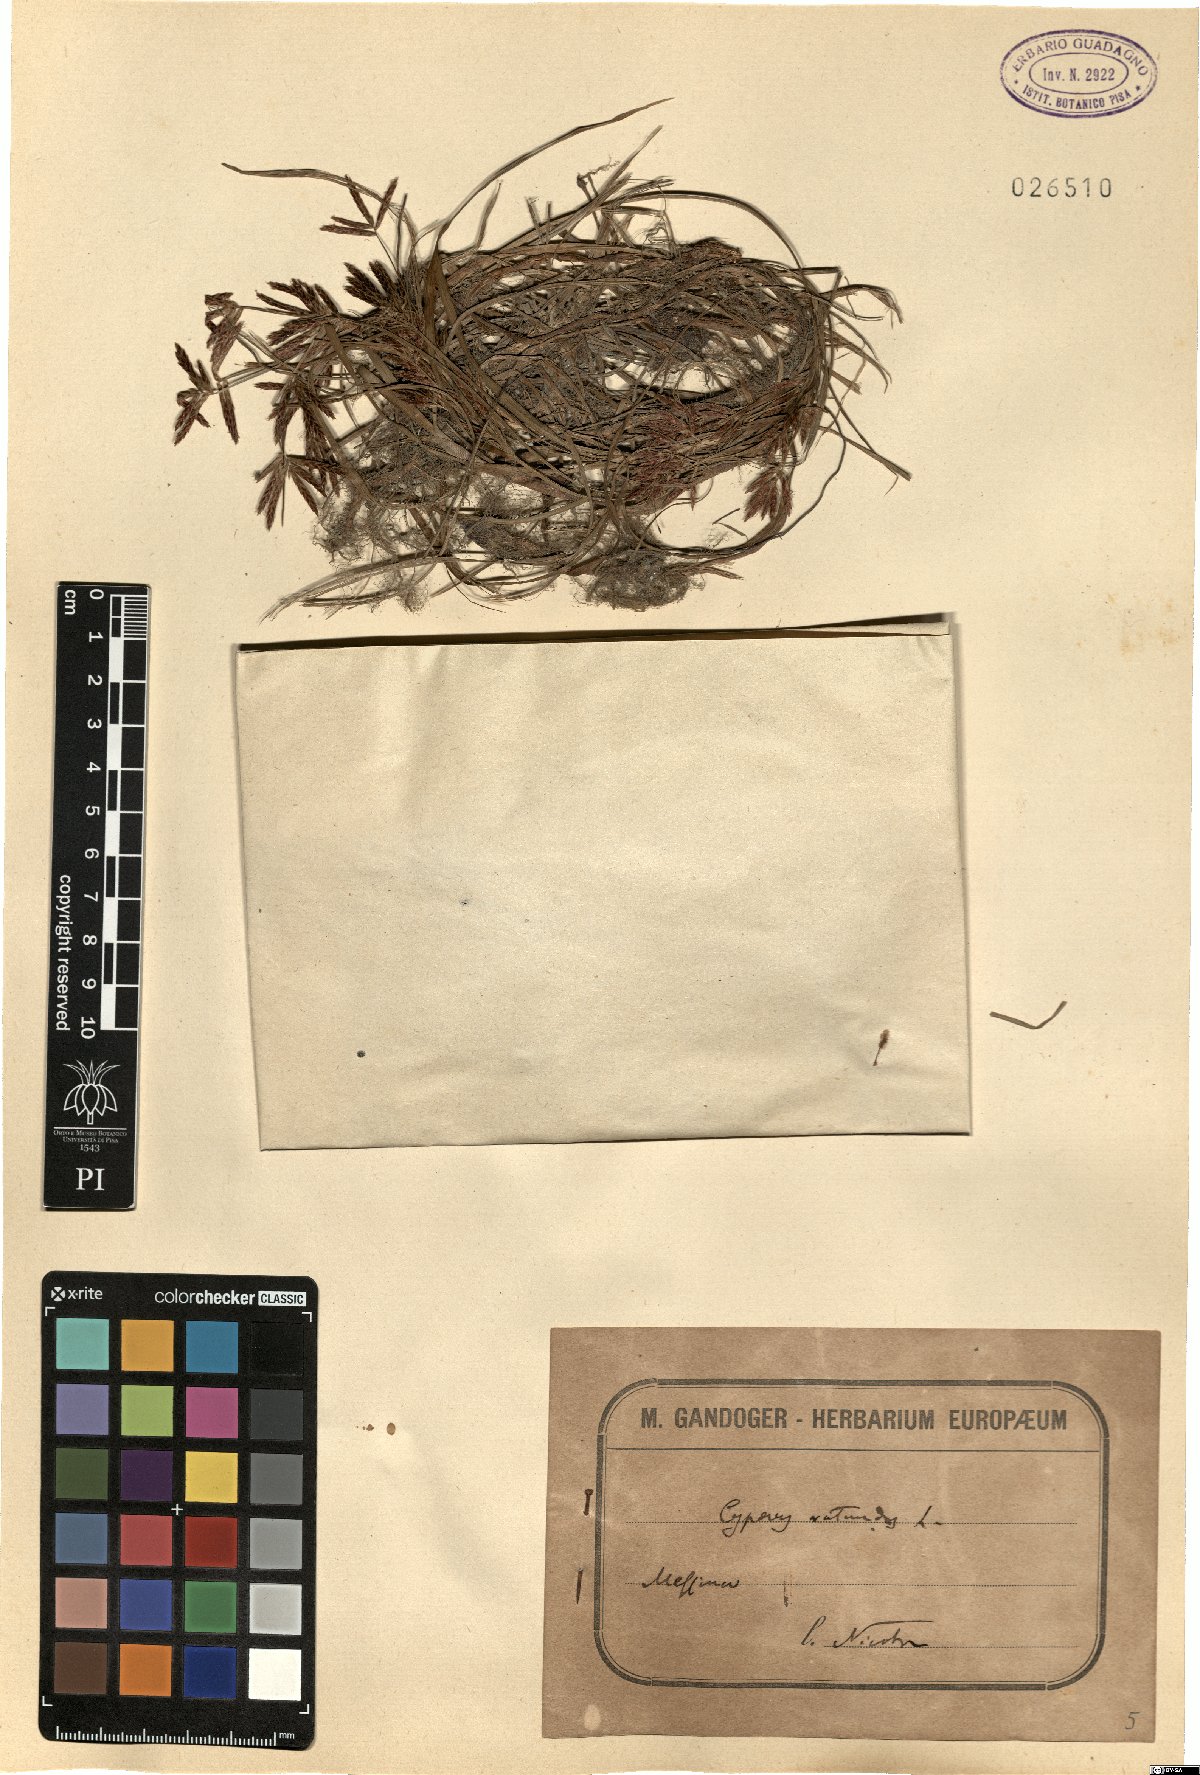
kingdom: Plantae
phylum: Tracheophyta
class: Liliopsida
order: Poales
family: Cyperaceae
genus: Cyperus
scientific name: Cyperus rotundus
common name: Nutgrass
